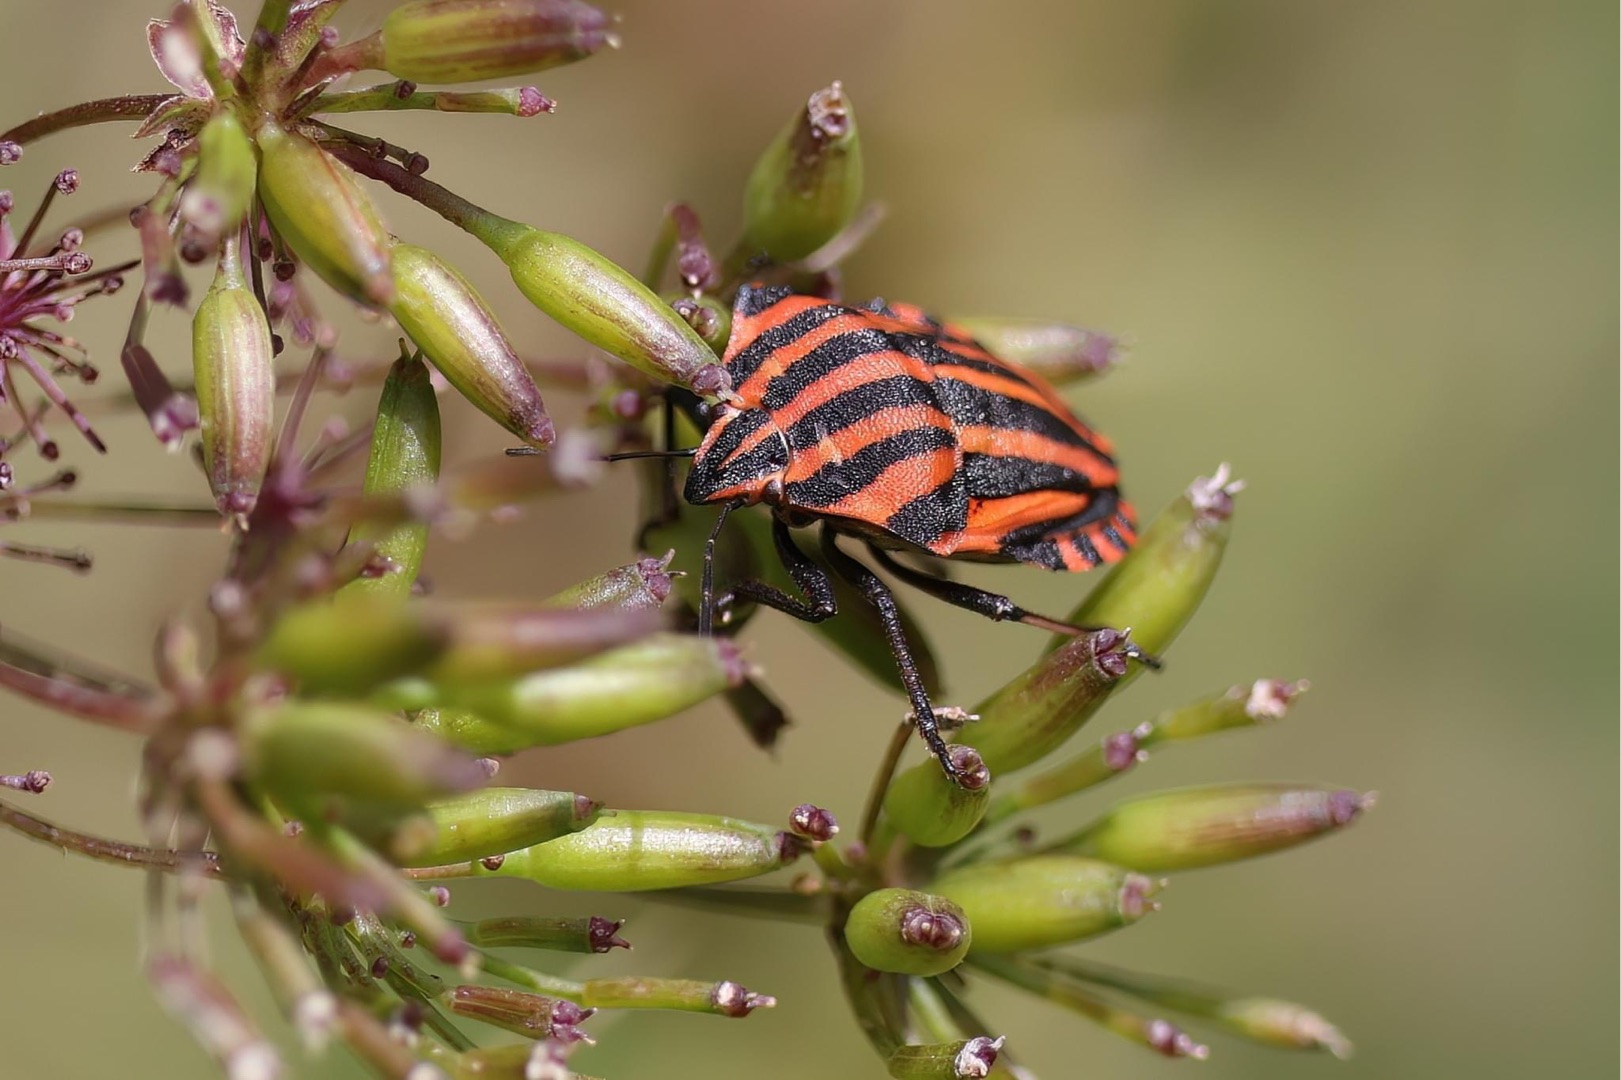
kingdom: Animalia
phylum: Arthropoda
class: Insecta
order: Hemiptera
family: Pentatomidae
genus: Graphosoma
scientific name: Graphosoma italicum
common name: Stribetæge
